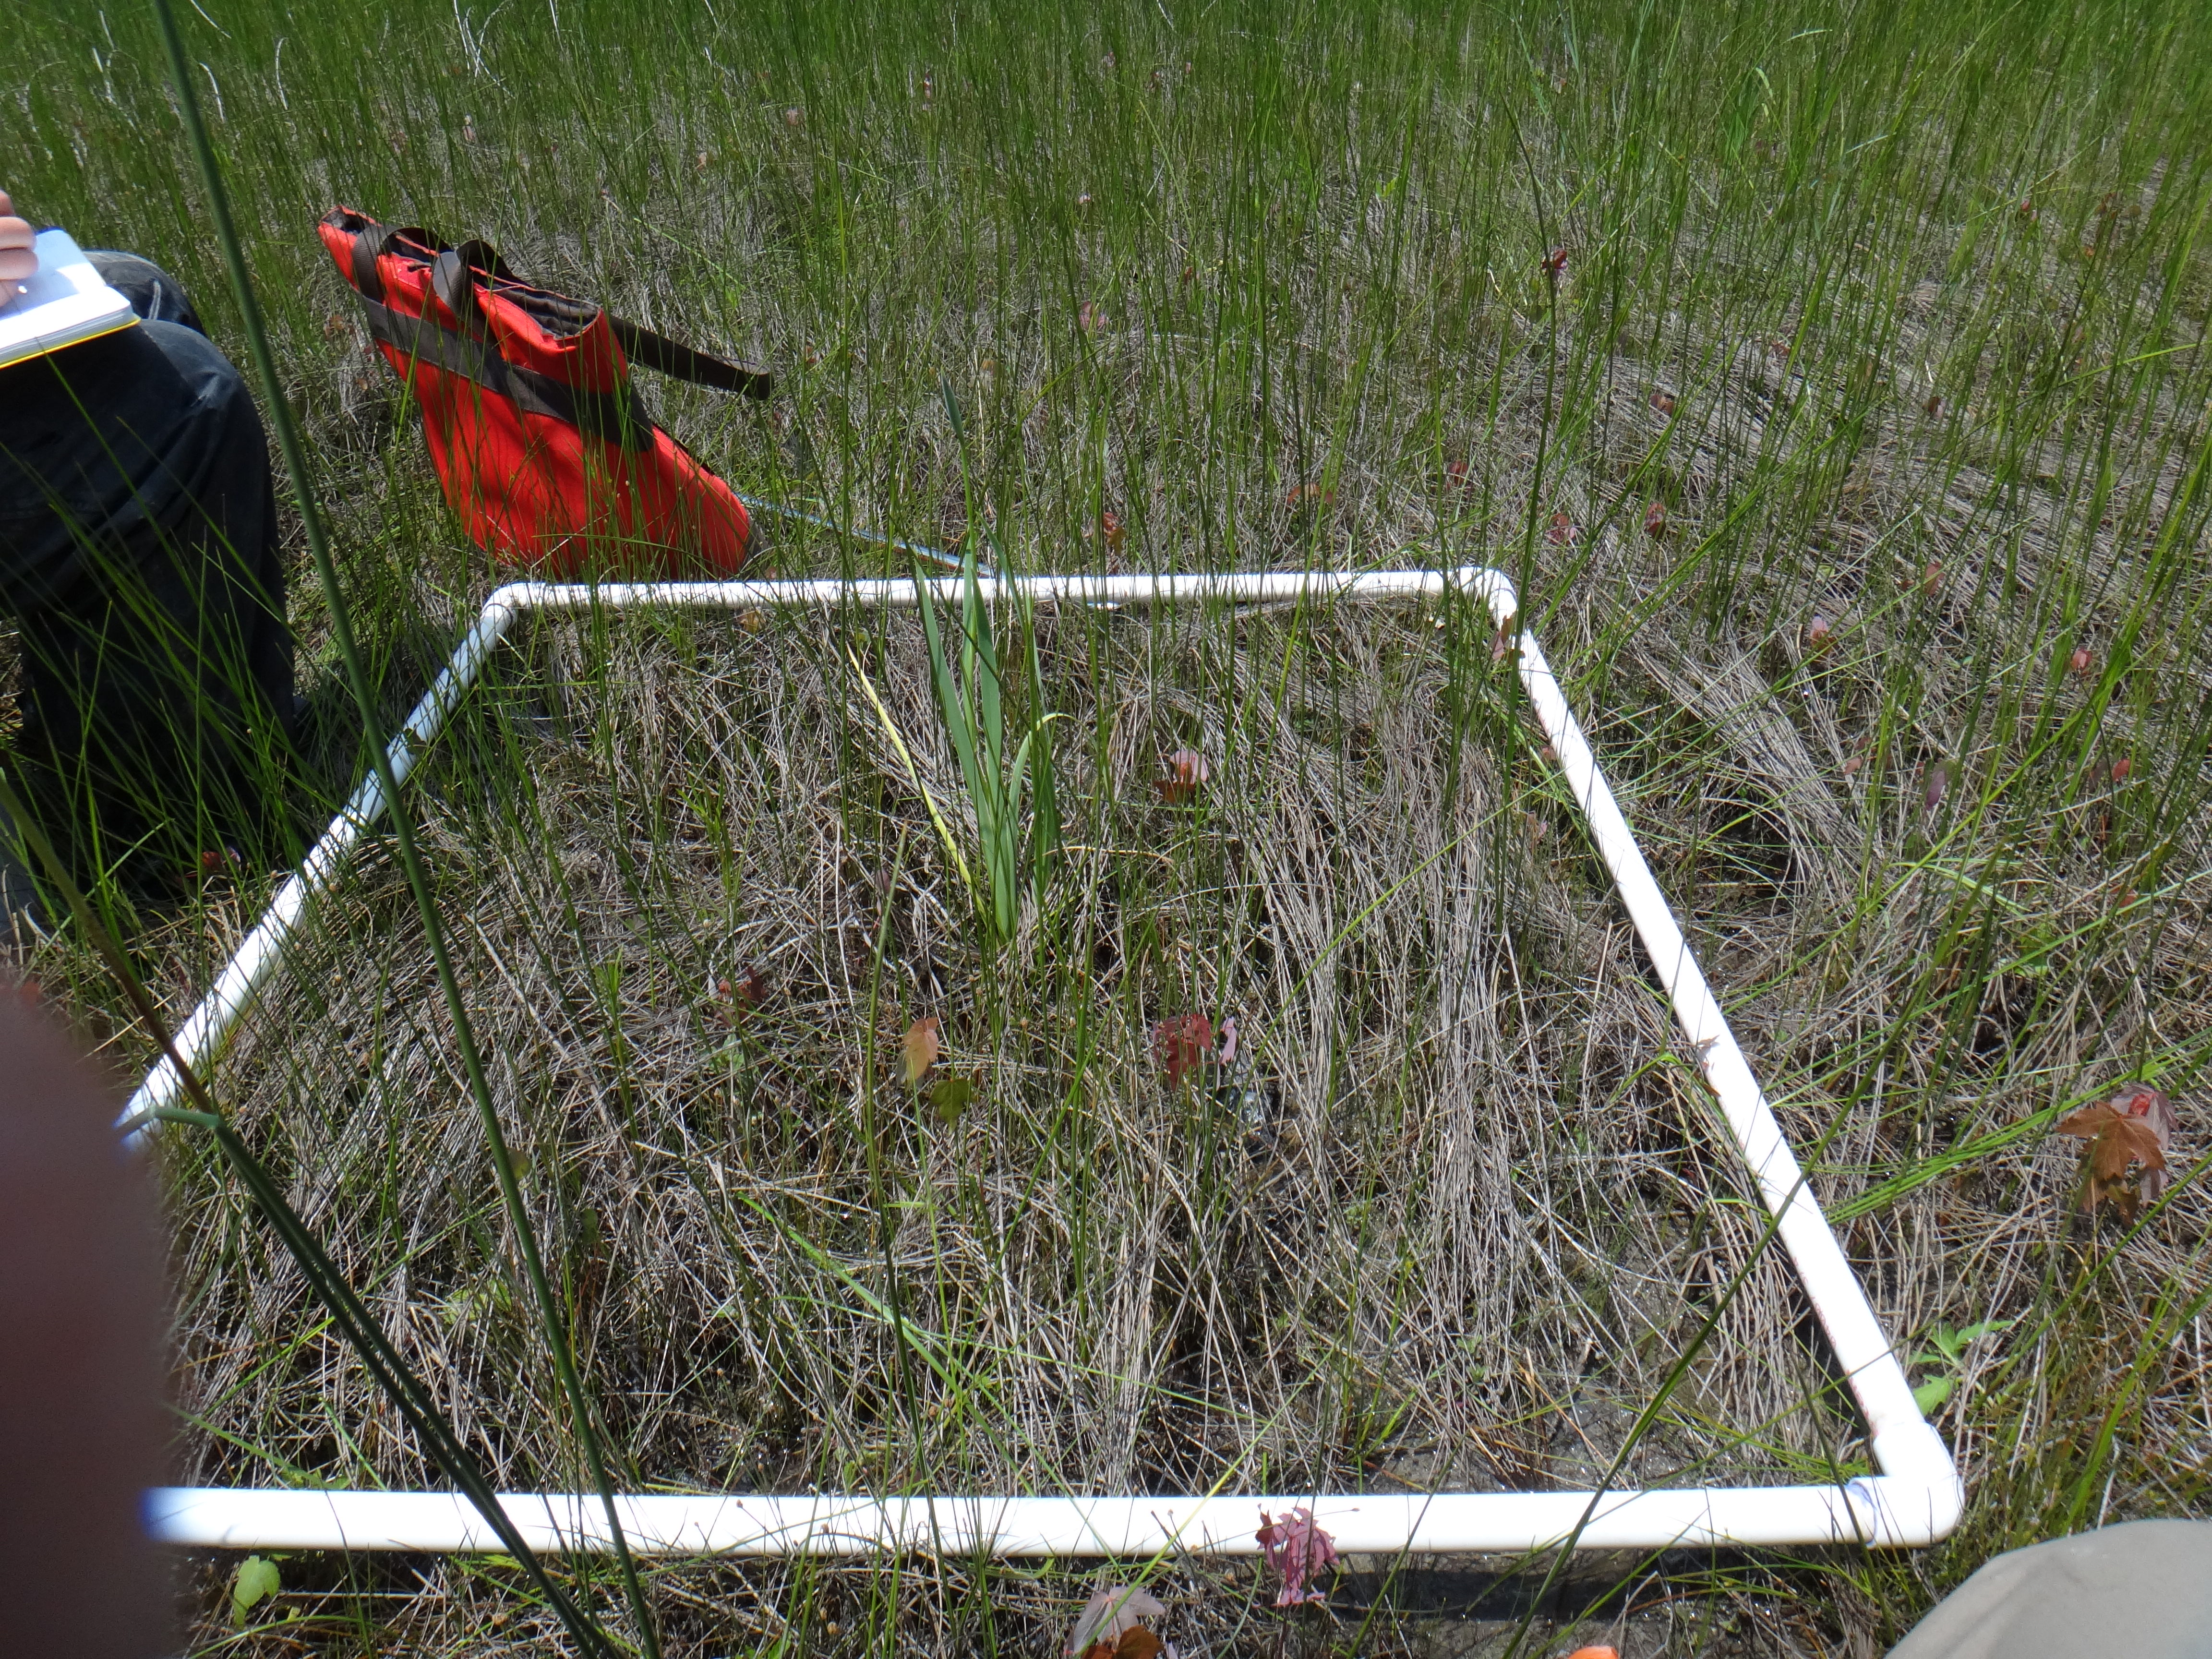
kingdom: Plantae
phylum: Tracheophyta
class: Liliopsida
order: Poales
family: Cyperaceae
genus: Eleocharis
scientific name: Eleocharis elliptica
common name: Capitate spikerush
